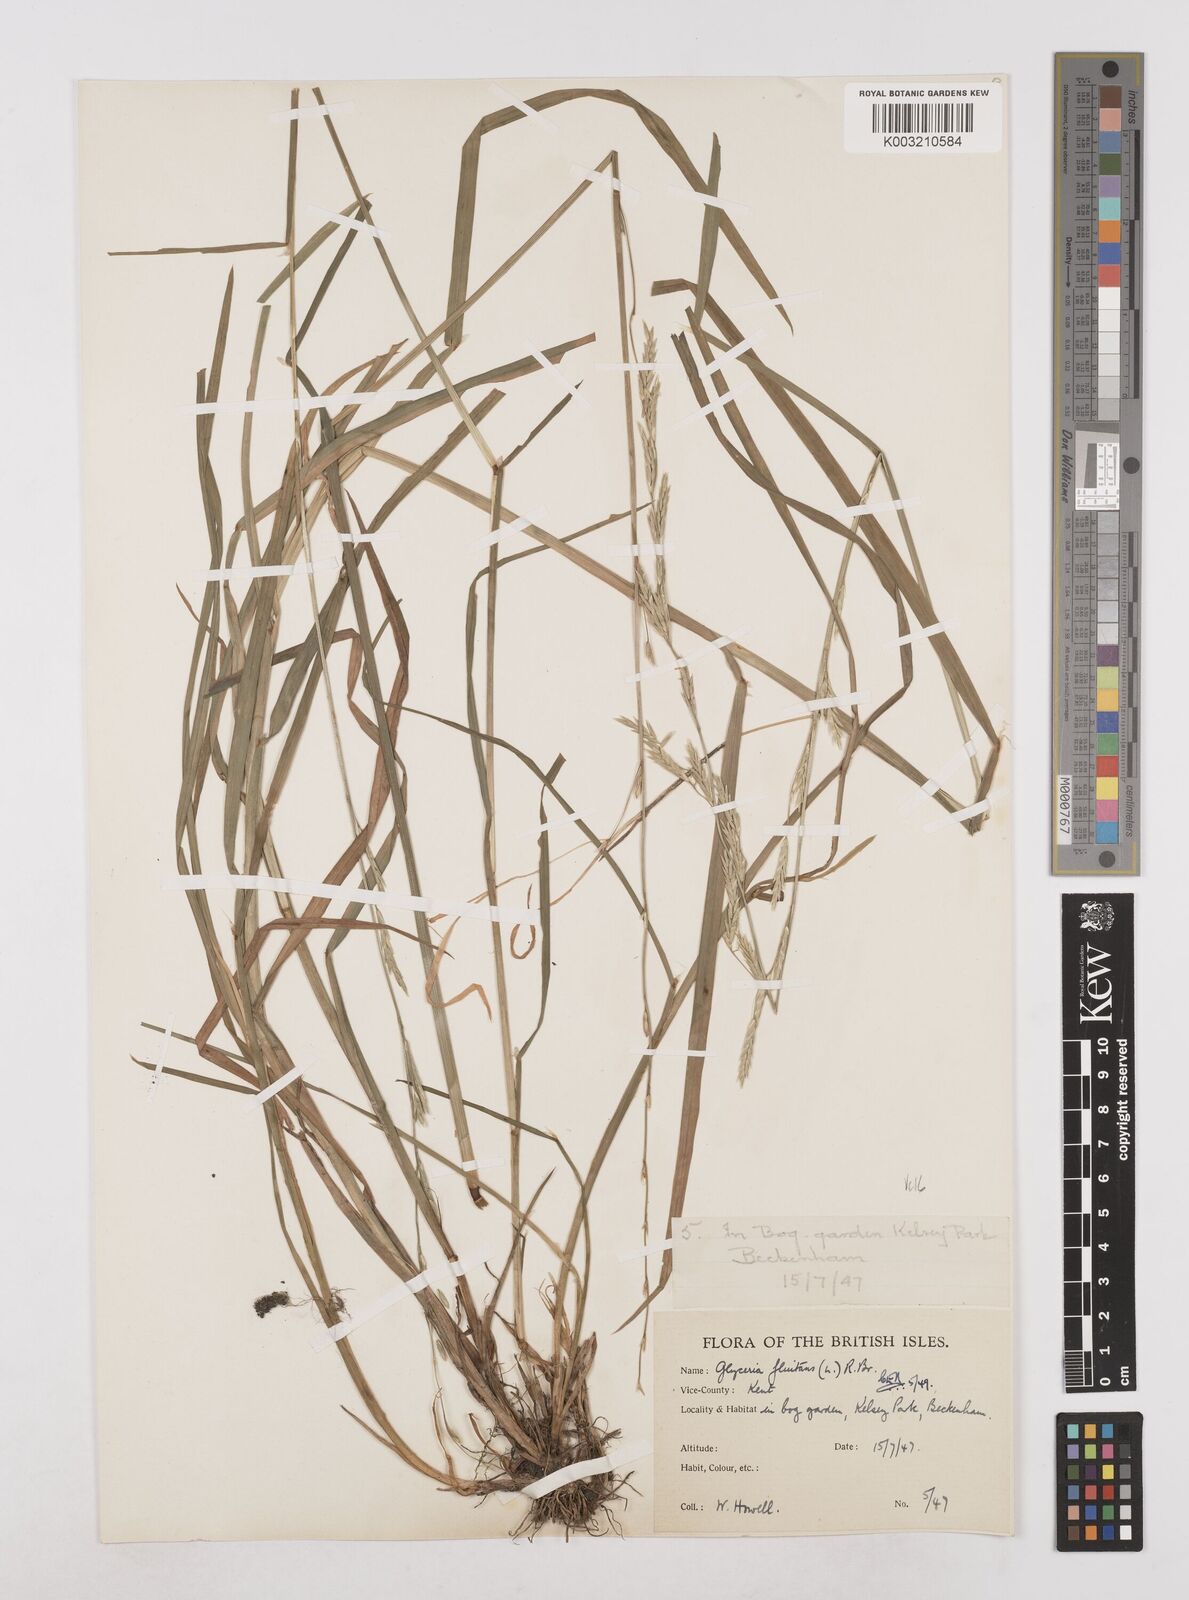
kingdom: Plantae
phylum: Tracheophyta
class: Liliopsida
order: Poales
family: Poaceae
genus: Glyceria
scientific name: Glyceria fluitans
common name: Floating sweet-grass
